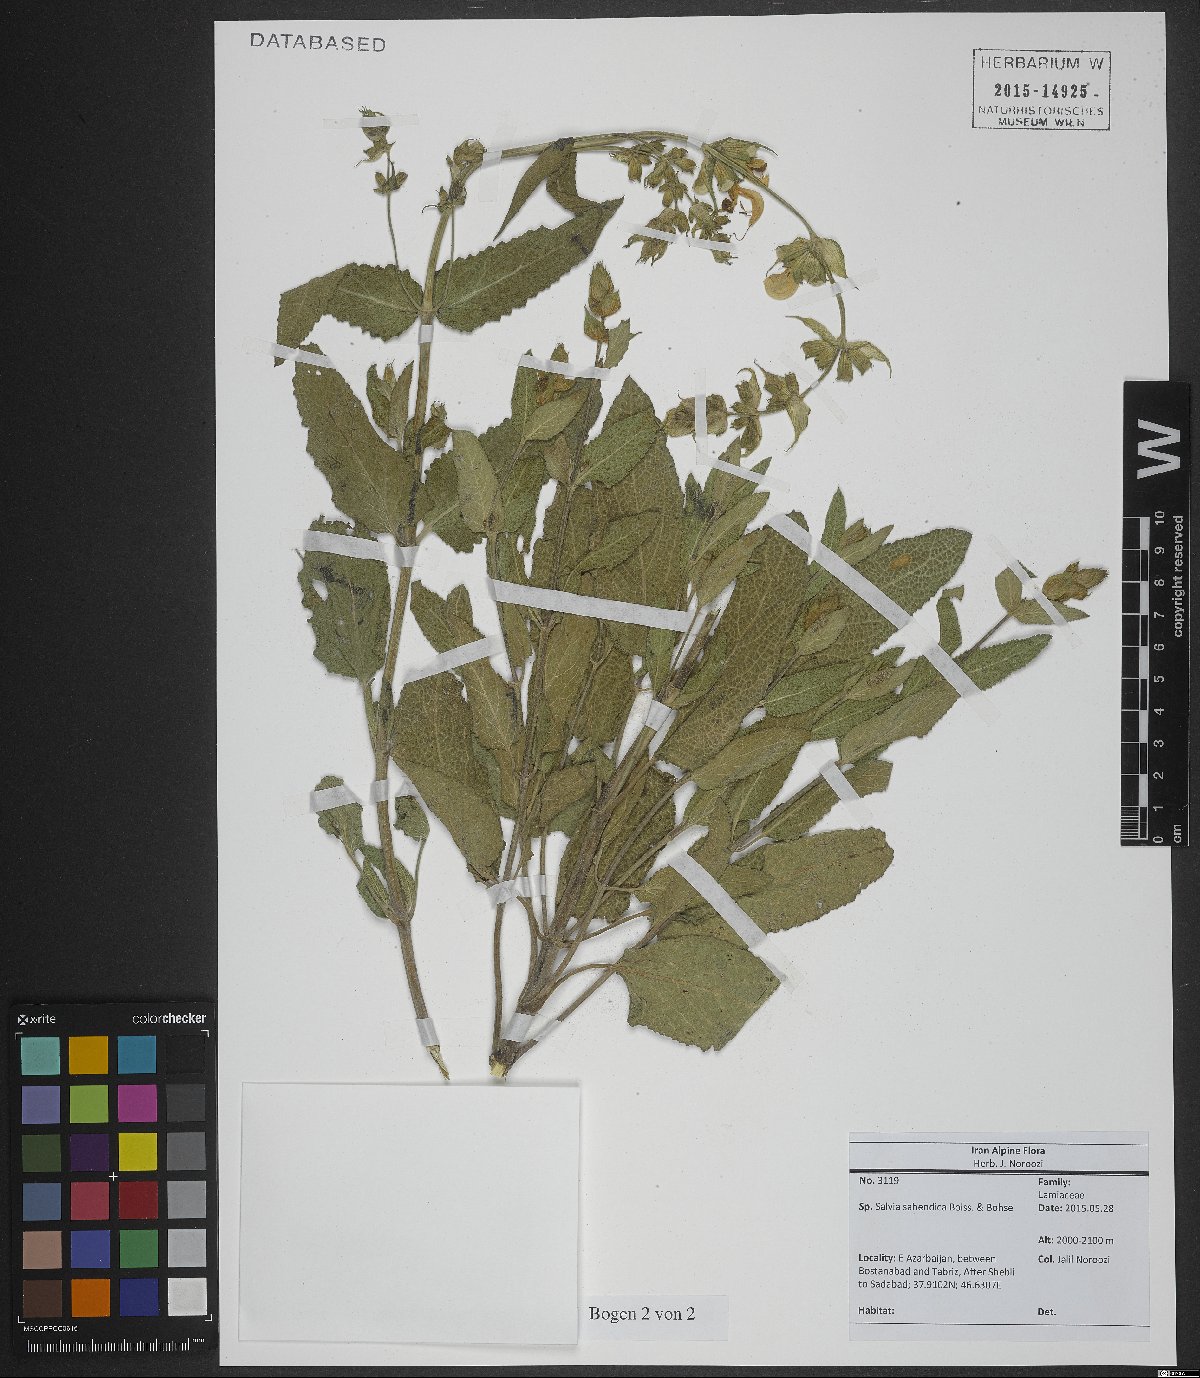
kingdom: Plantae
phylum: Tracheophyta
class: Magnoliopsida
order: Lamiales
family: Lamiaceae
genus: Salvia
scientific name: Salvia sahendica
